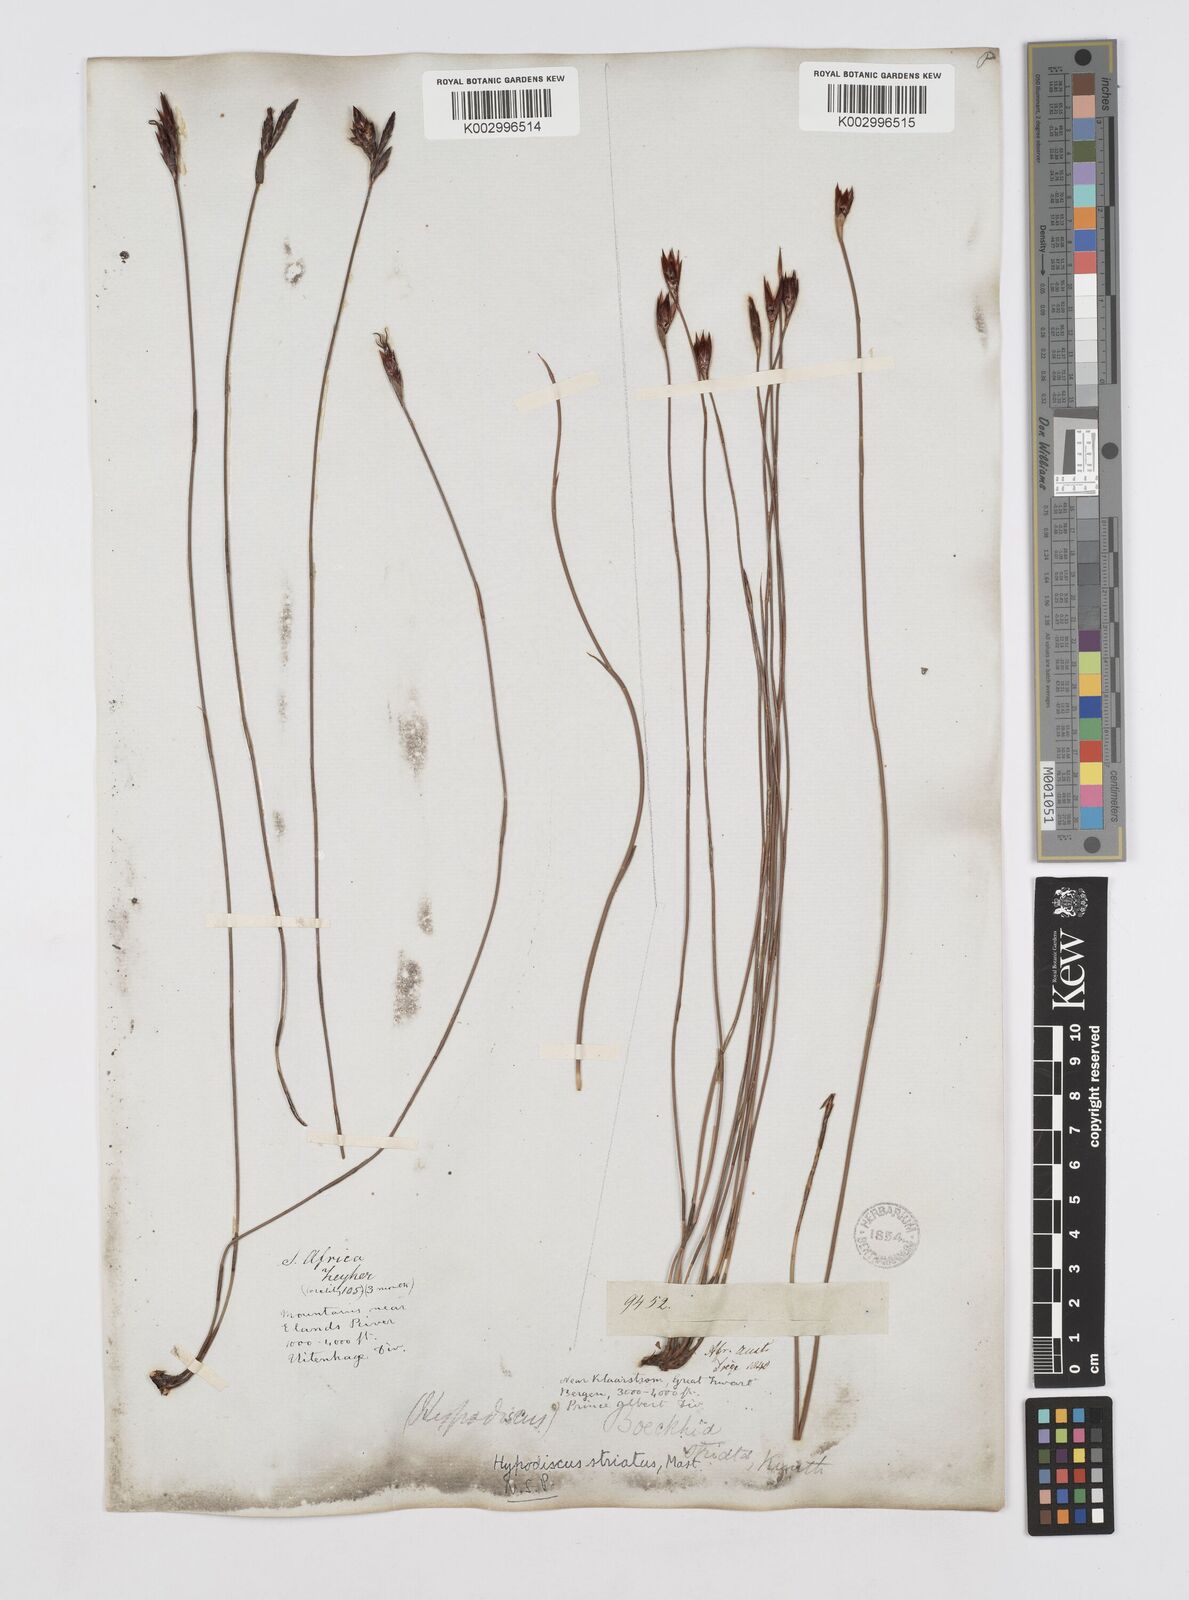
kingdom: Plantae
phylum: Tracheophyta
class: Liliopsida
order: Poales
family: Restionaceae
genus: Hypodiscus
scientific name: Hypodiscus striatus
